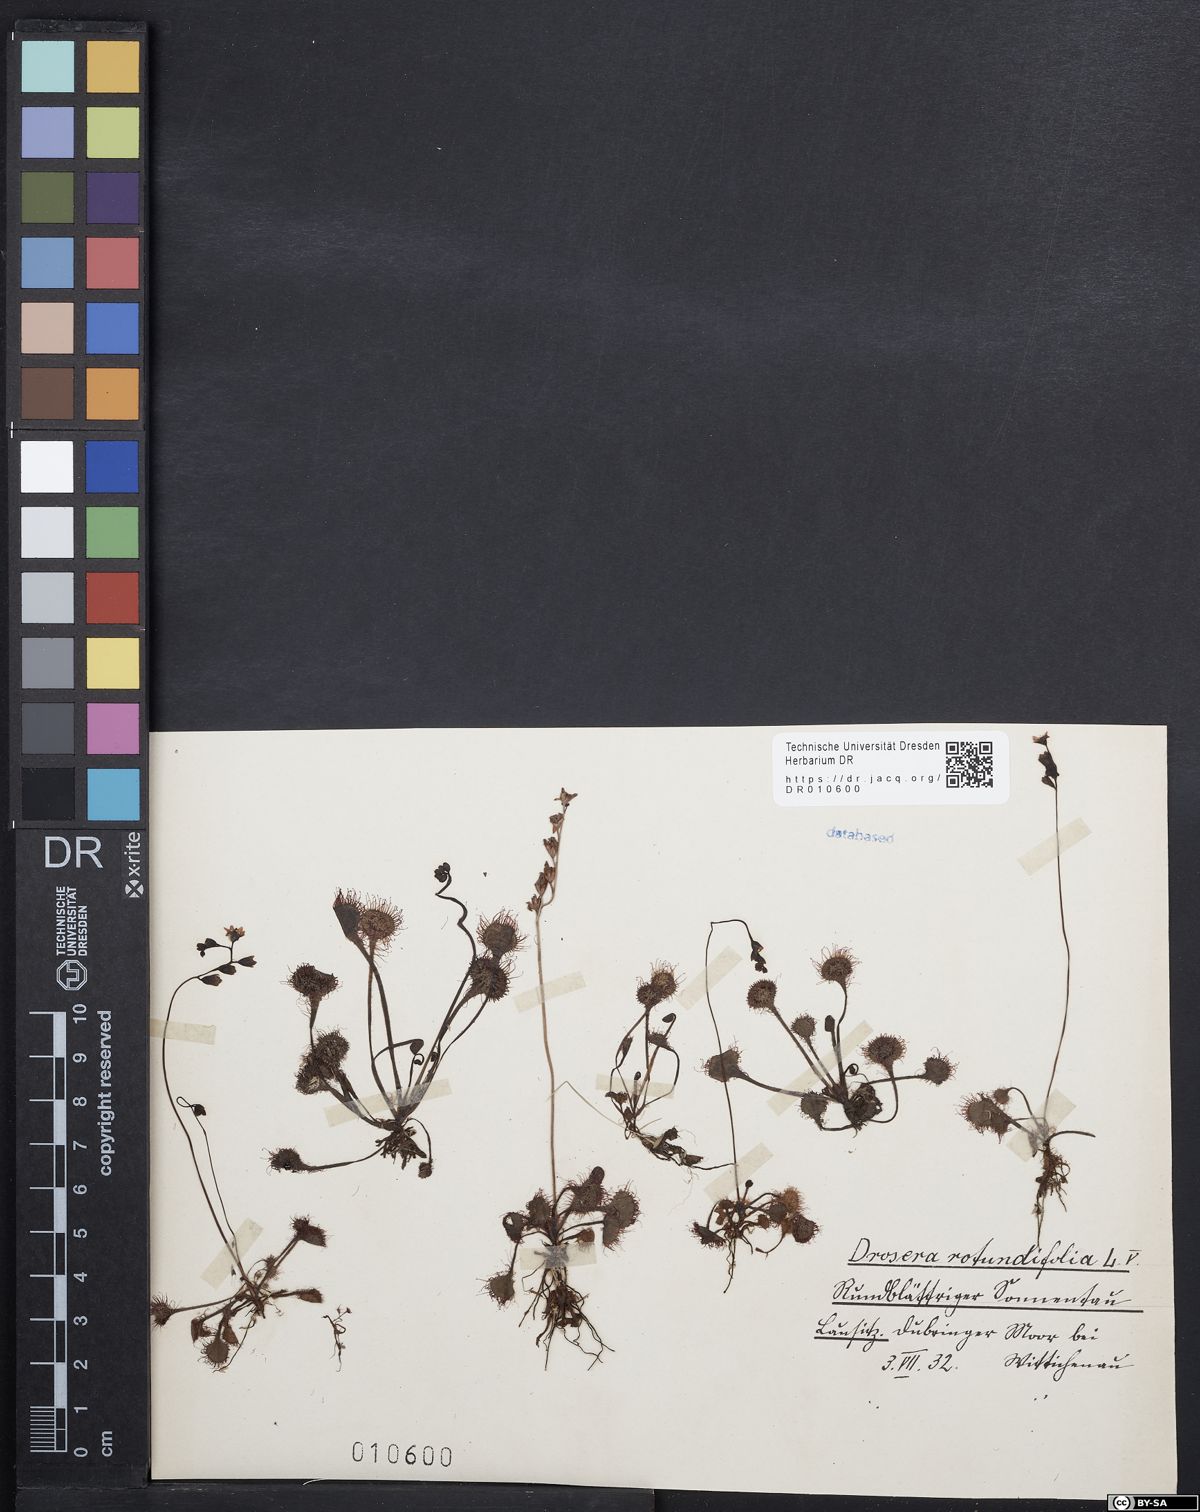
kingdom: Plantae
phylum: Tracheophyta
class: Magnoliopsida
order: Caryophyllales
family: Droseraceae
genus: Drosera
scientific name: Drosera rotundifolia
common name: Round-leaved sundew
